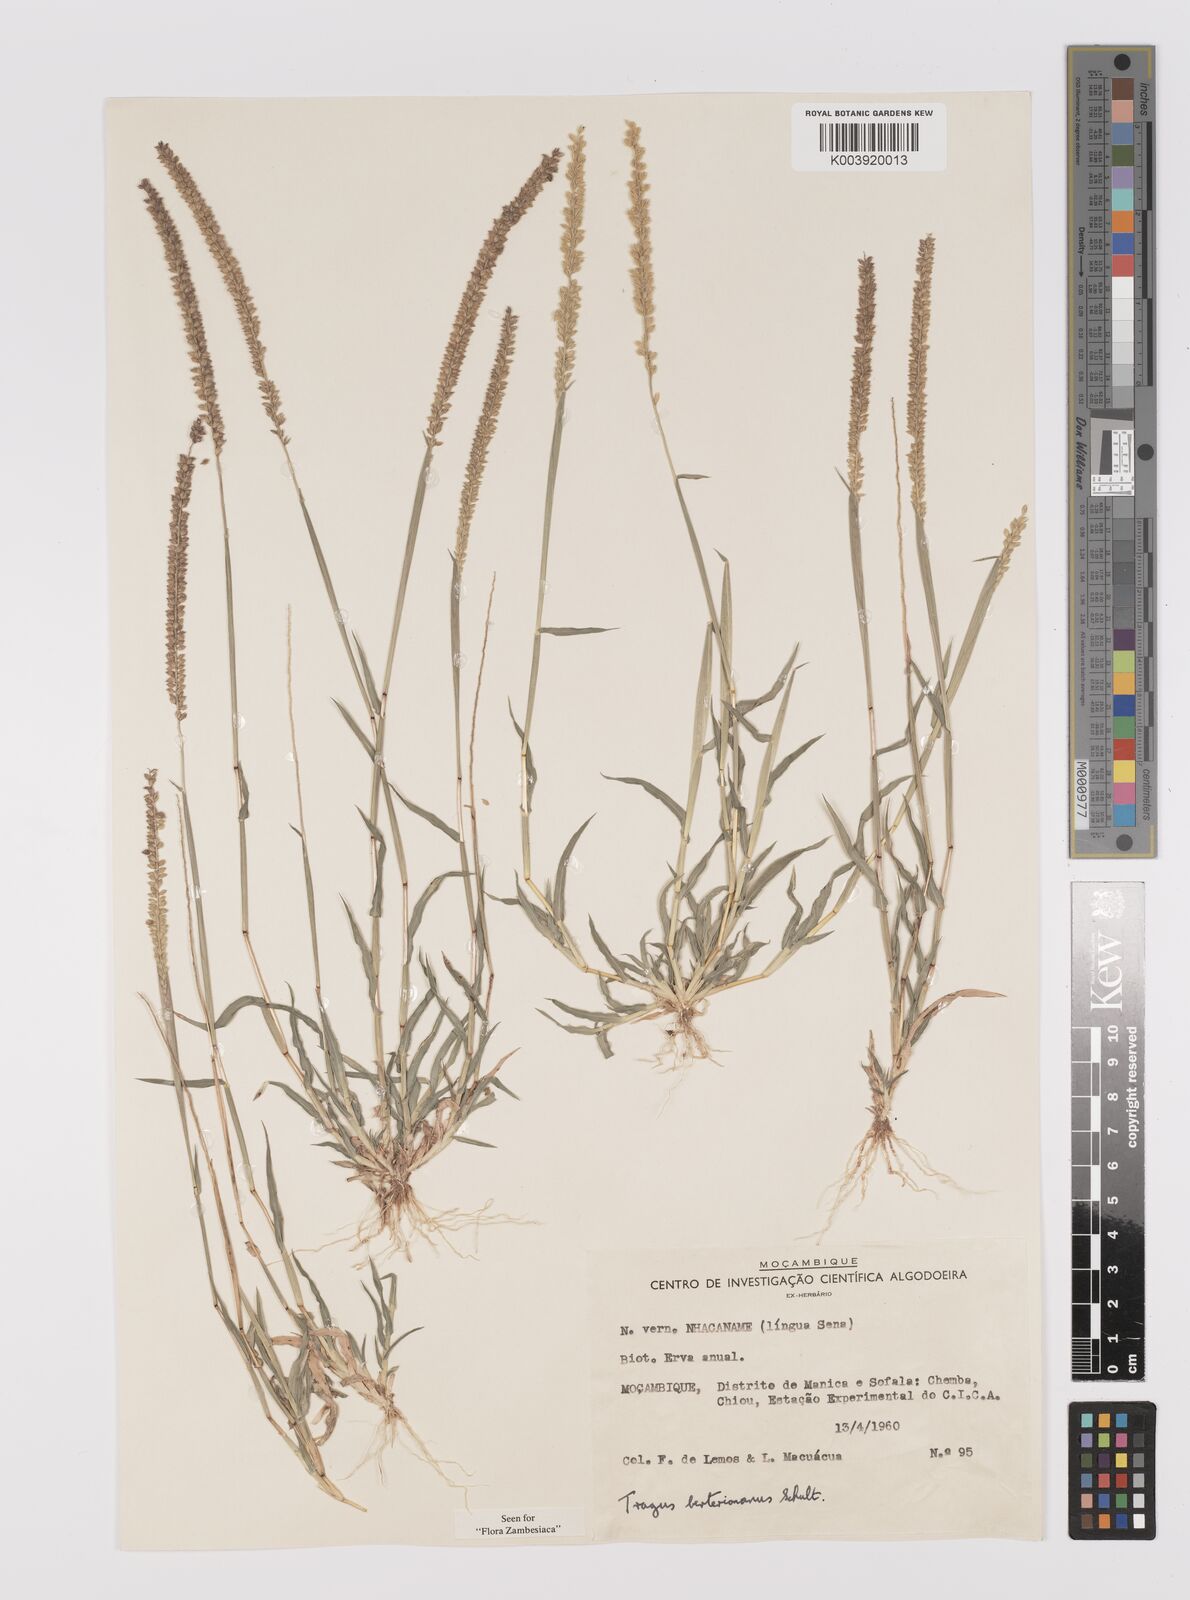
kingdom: Plantae
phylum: Tracheophyta
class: Liliopsida
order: Poales
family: Poaceae
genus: Tragus
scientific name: Tragus berteronianus
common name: African bur-grass
